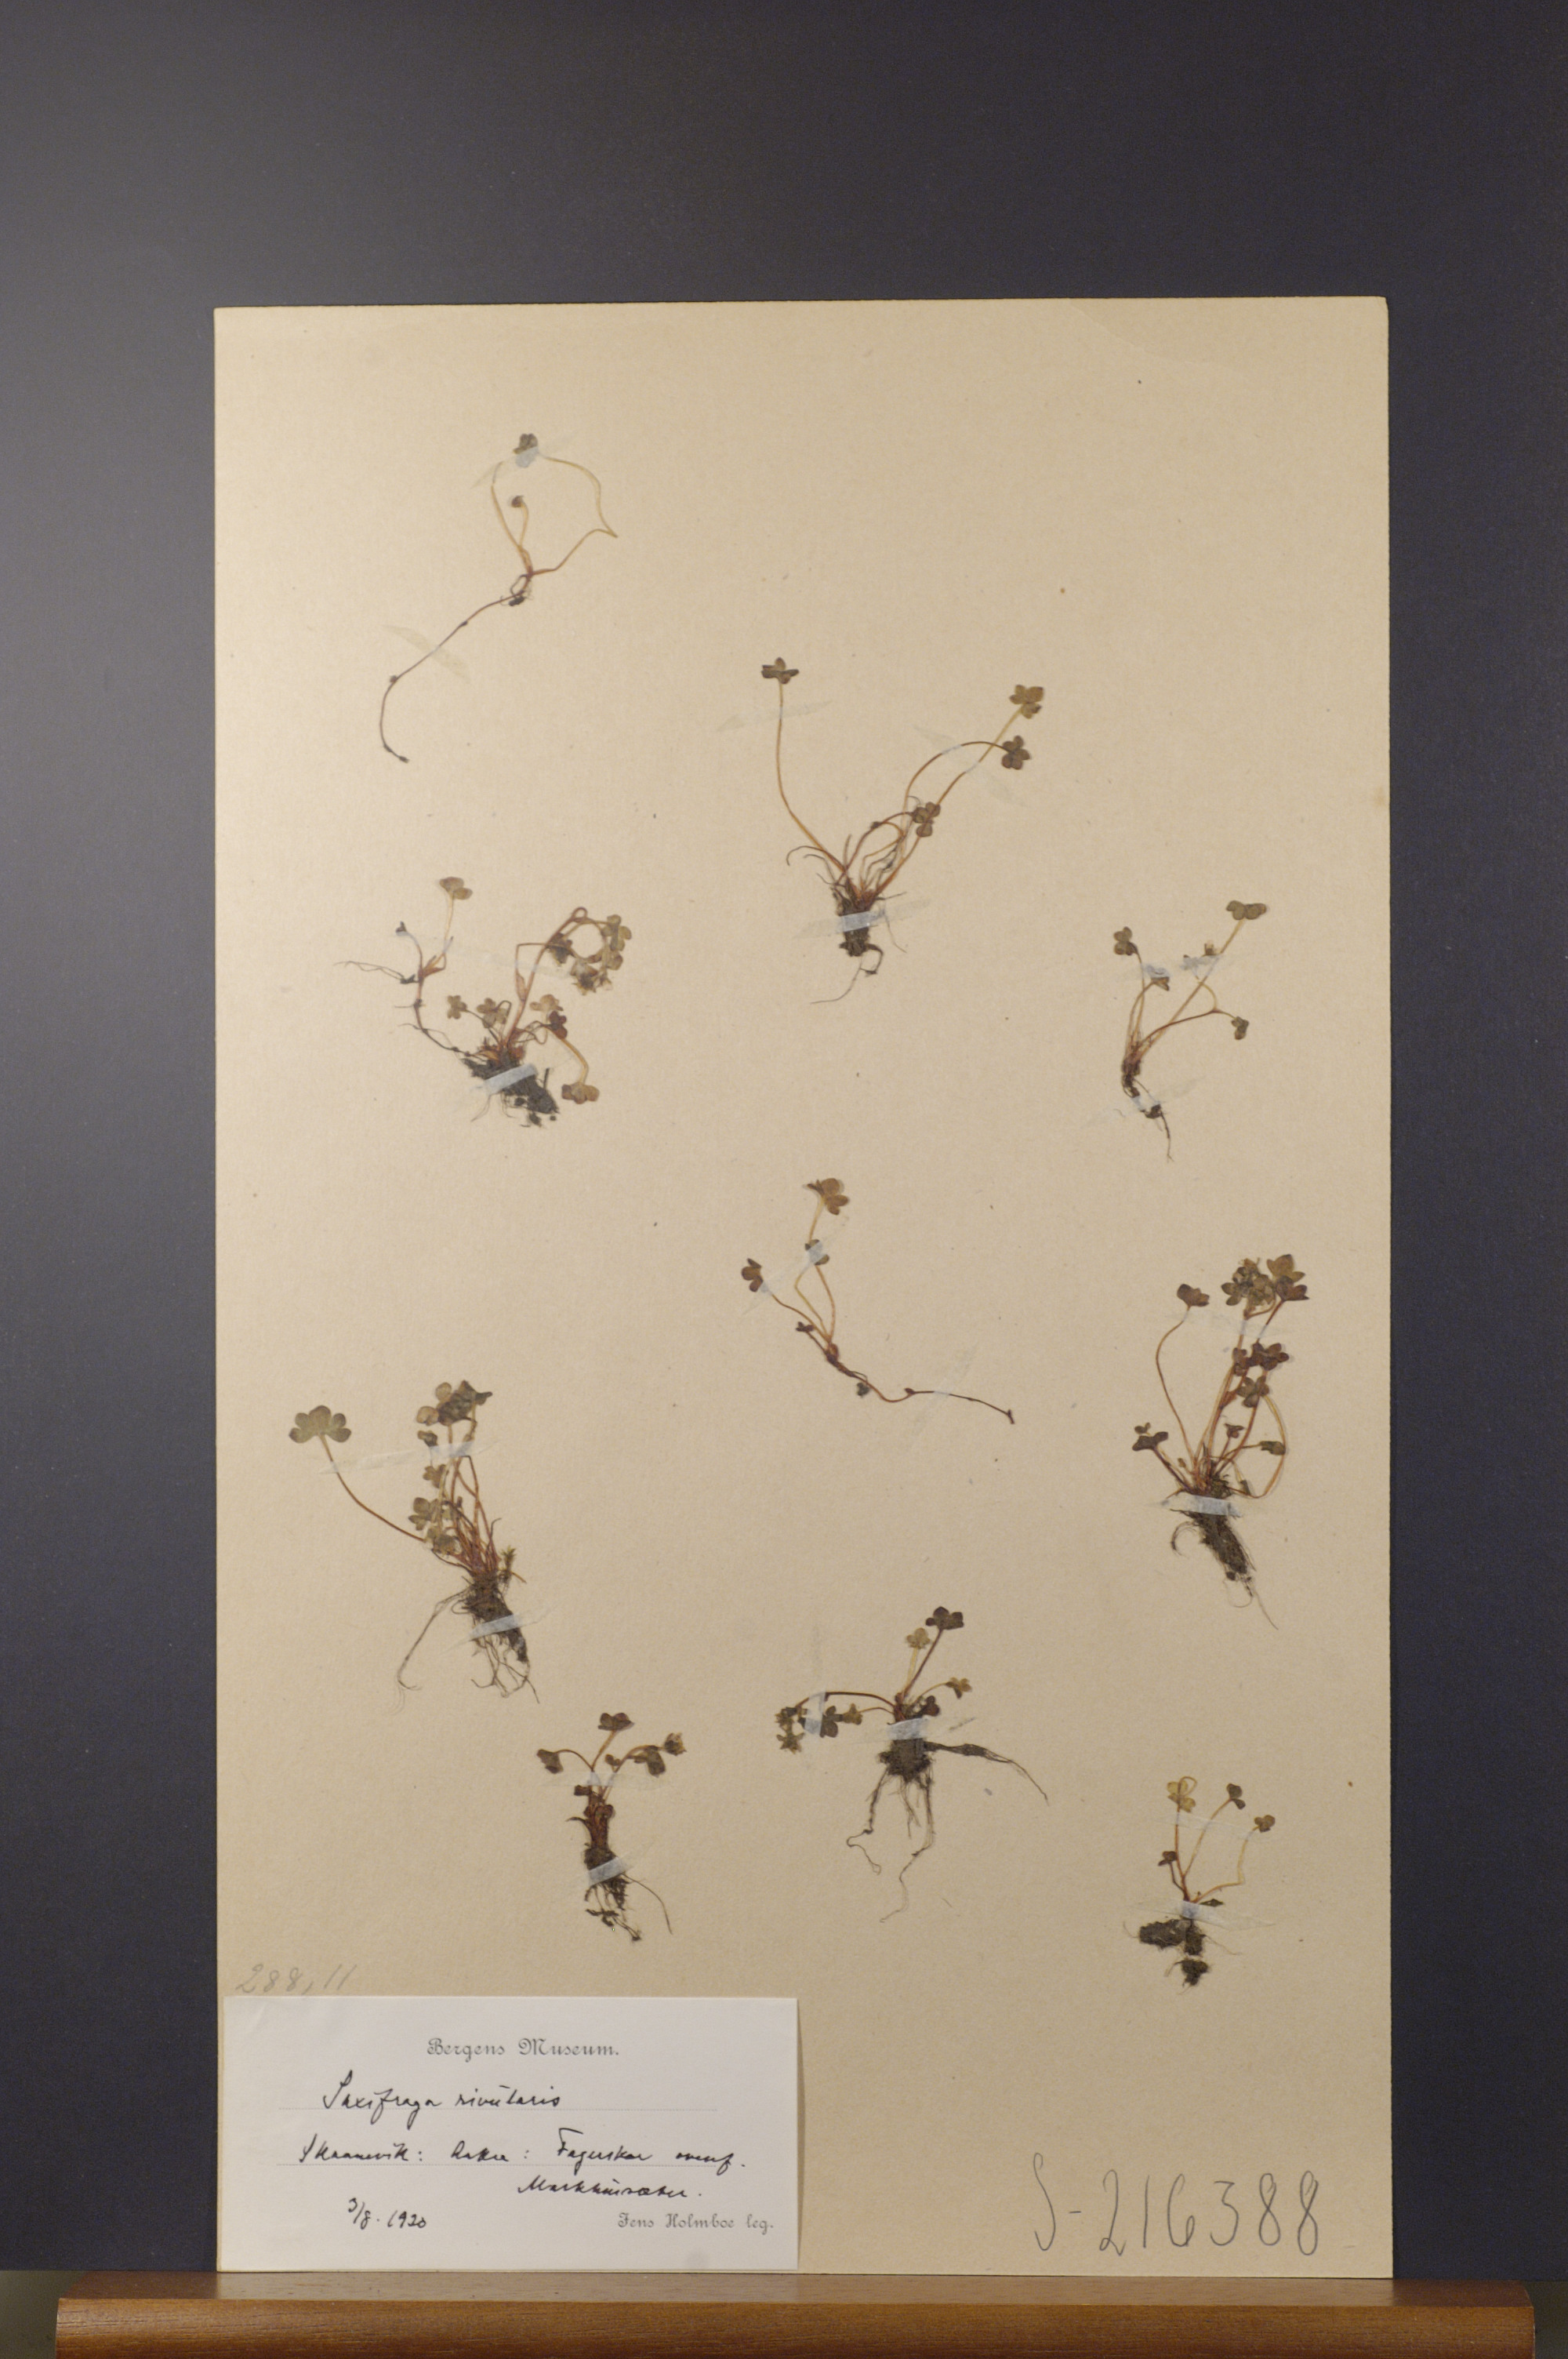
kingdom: Plantae
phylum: Tracheophyta
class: Magnoliopsida
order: Saxifragales
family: Saxifragaceae
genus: Saxifraga
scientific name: Saxifraga rivularis
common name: Highland saxifrage
